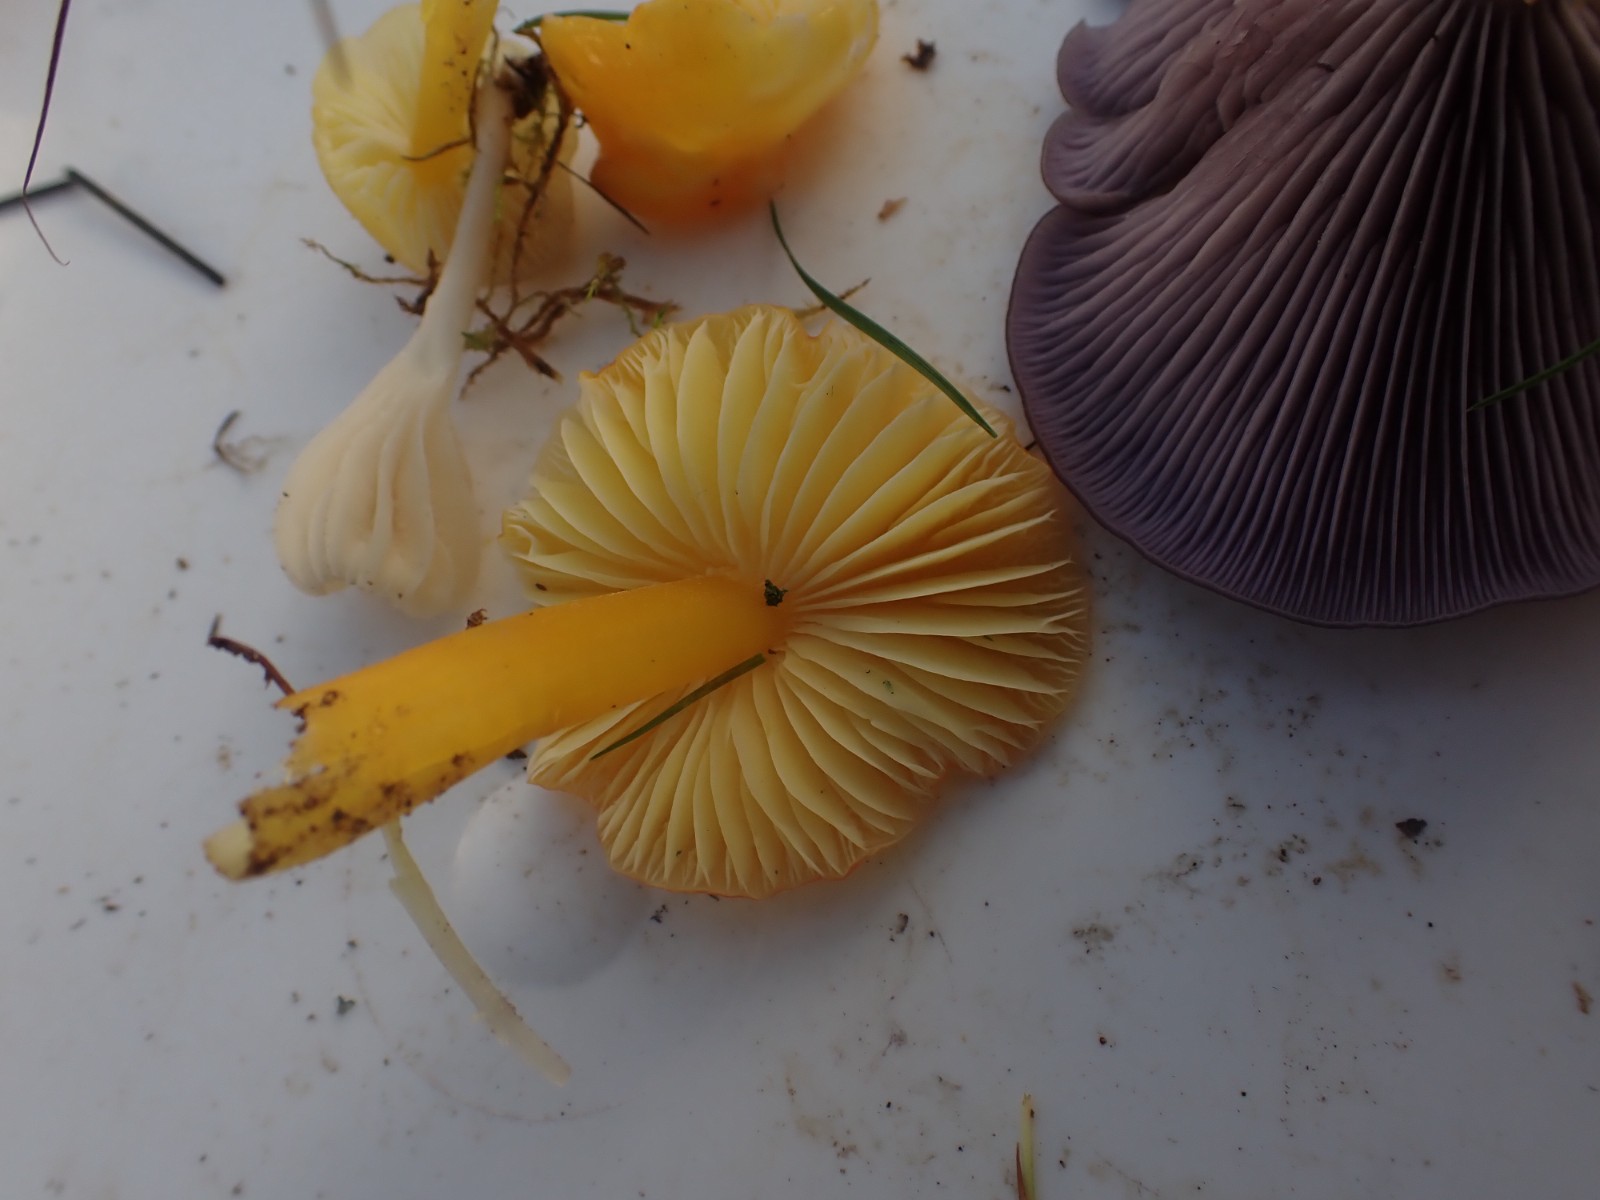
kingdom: Fungi
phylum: Basidiomycota
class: Agaricomycetes
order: Agaricales
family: Hygrophoraceae
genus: Hygrocybe
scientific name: Hygrocybe chlorophana
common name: gul vokshat
